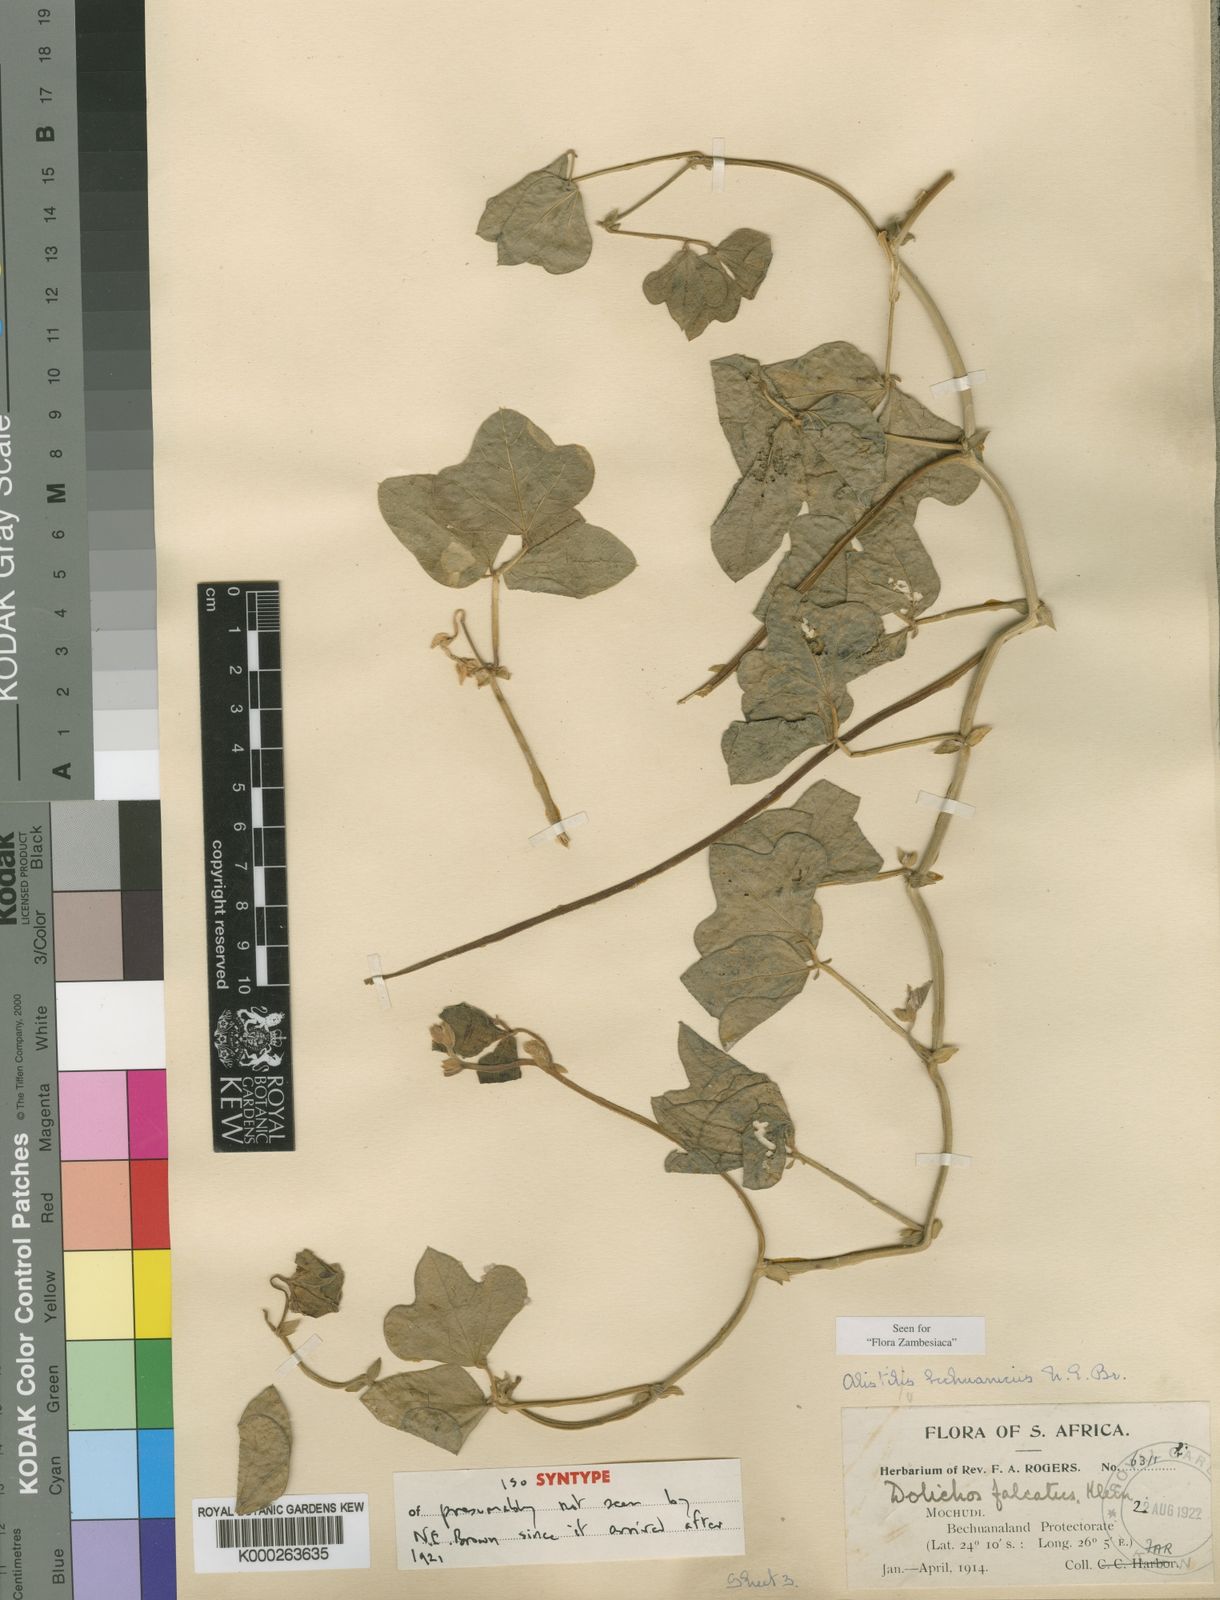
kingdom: Plantae
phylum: Tracheophyta
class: Magnoliopsida
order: Fabales
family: Fabaceae
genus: Alistilus
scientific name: Alistilus bechuanicus
